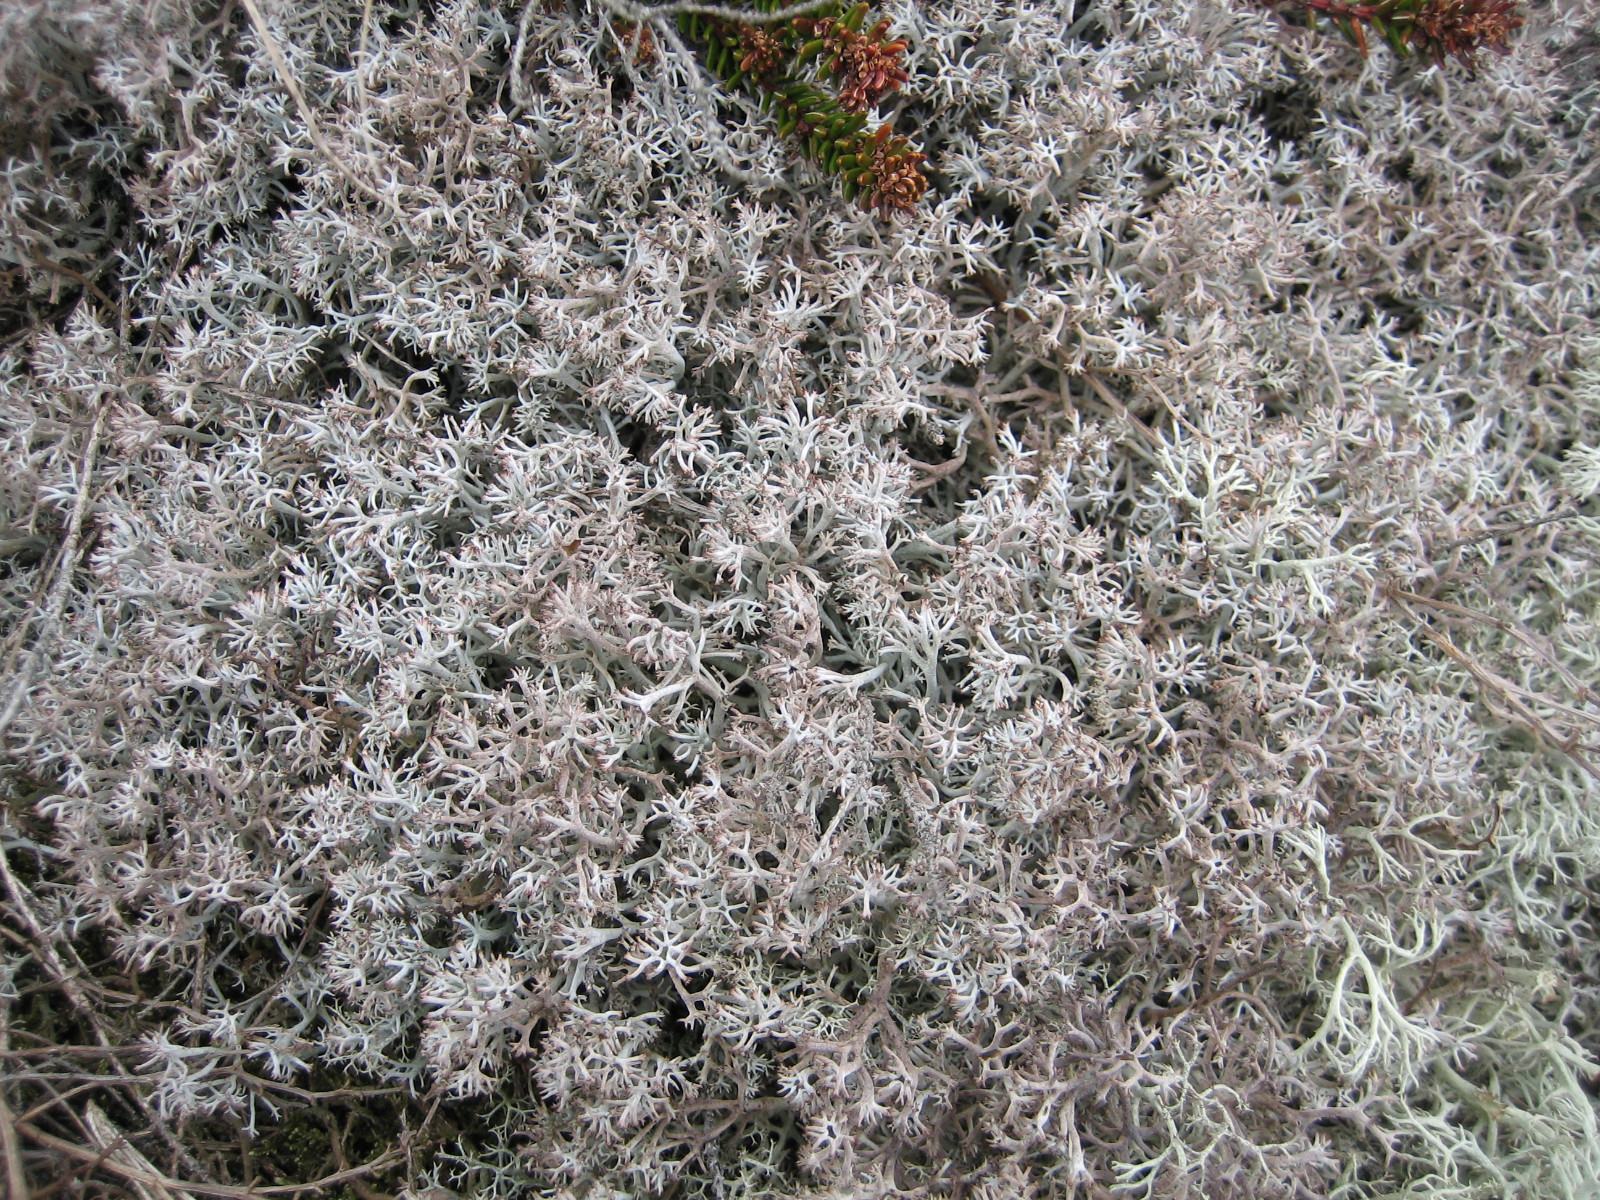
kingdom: Fungi
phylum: Ascomycota
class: Lecanoromycetes
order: Lecanorales
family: Cladoniaceae
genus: Cladonia
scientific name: Cladonia rangiferina
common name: askegrå rensdyrlav
